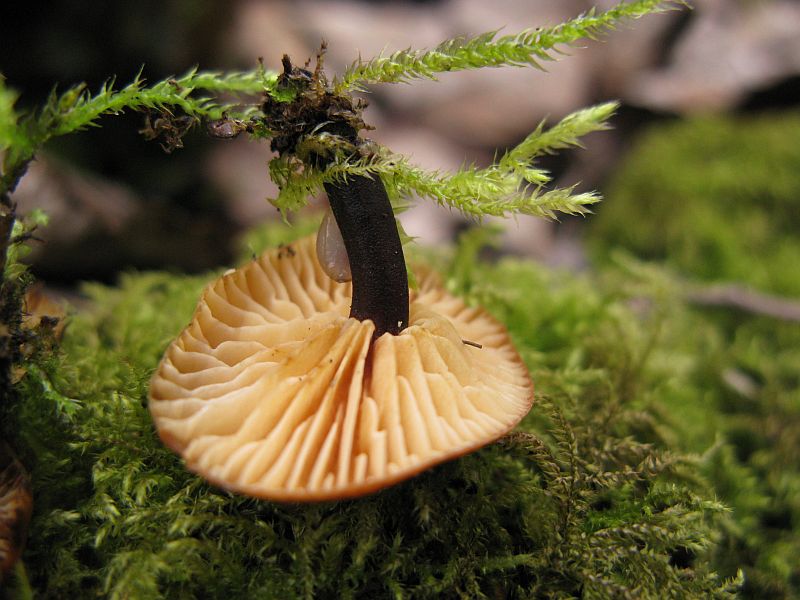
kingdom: Fungi
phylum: Basidiomycota
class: Agaricomycetes
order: Agaricales
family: Physalacriaceae
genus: Flammulina
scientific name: Flammulina velutipes
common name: gul fløjlsfod
